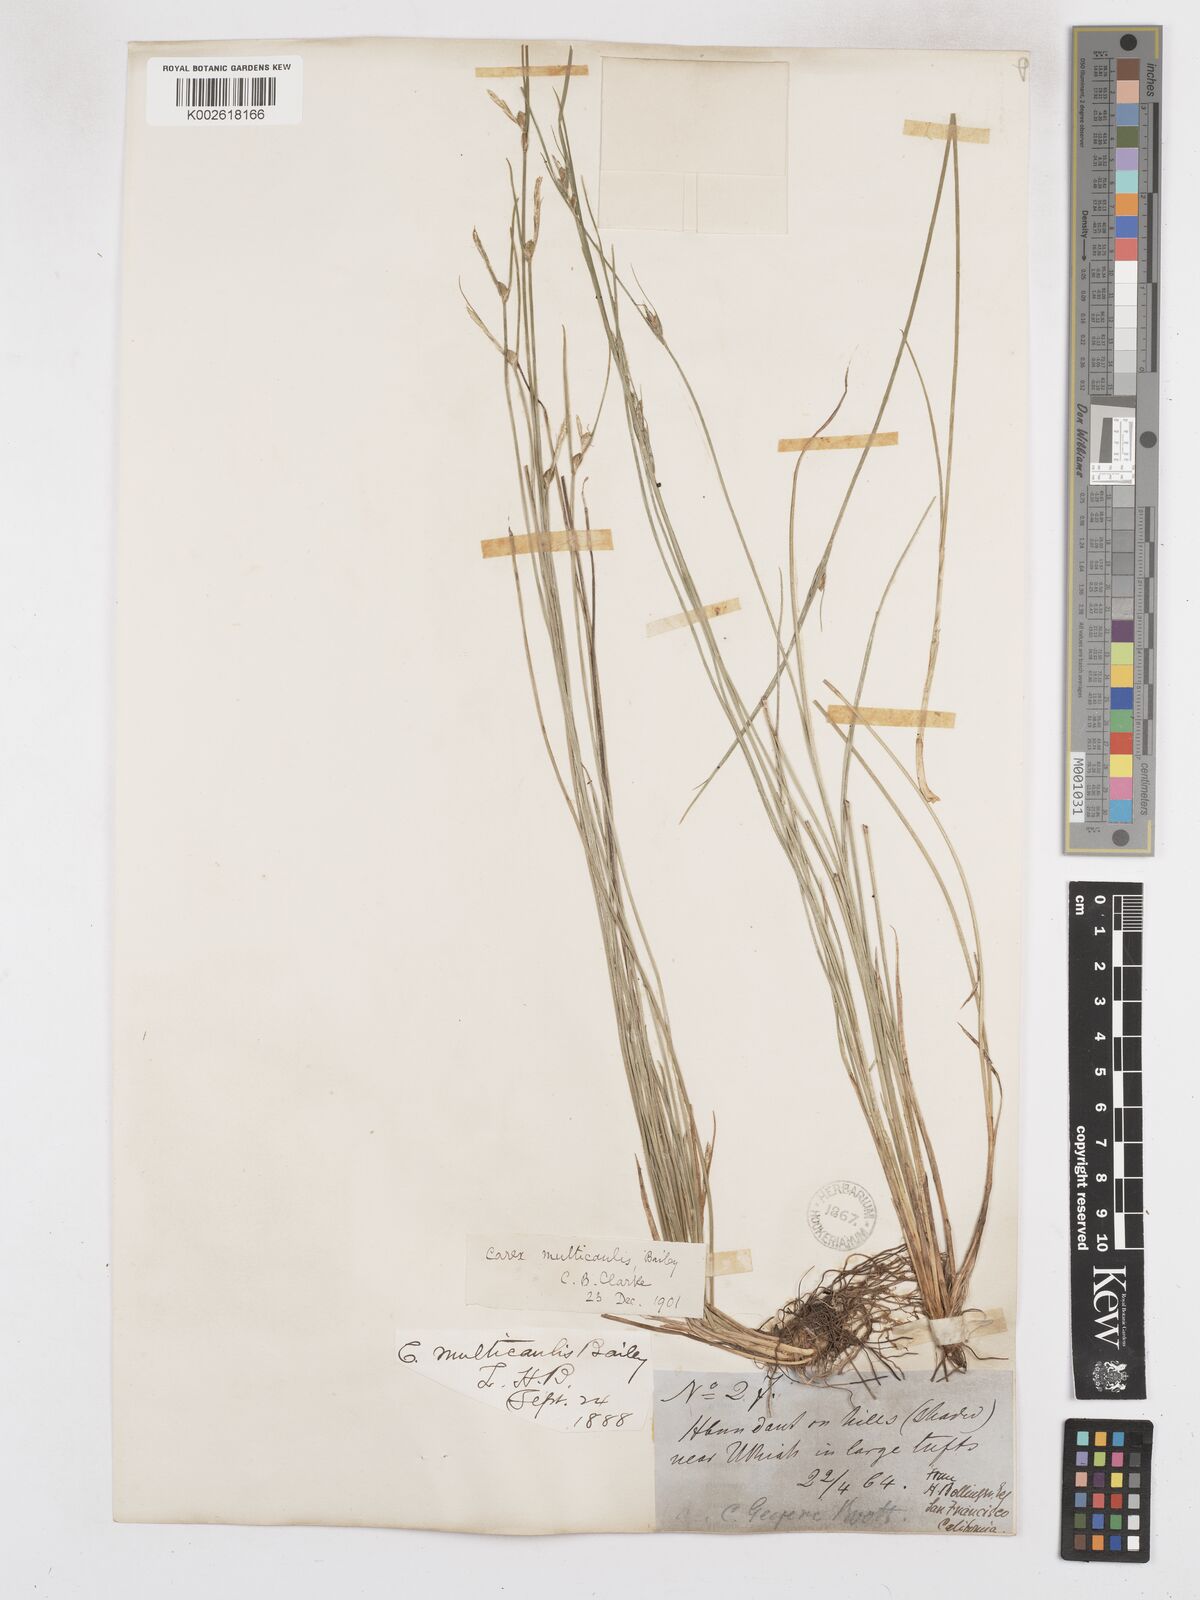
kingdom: Plantae
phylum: Tracheophyta
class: Liliopsida
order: Poales
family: Cyperaceae
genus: Carex
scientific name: Carex multicaulis
